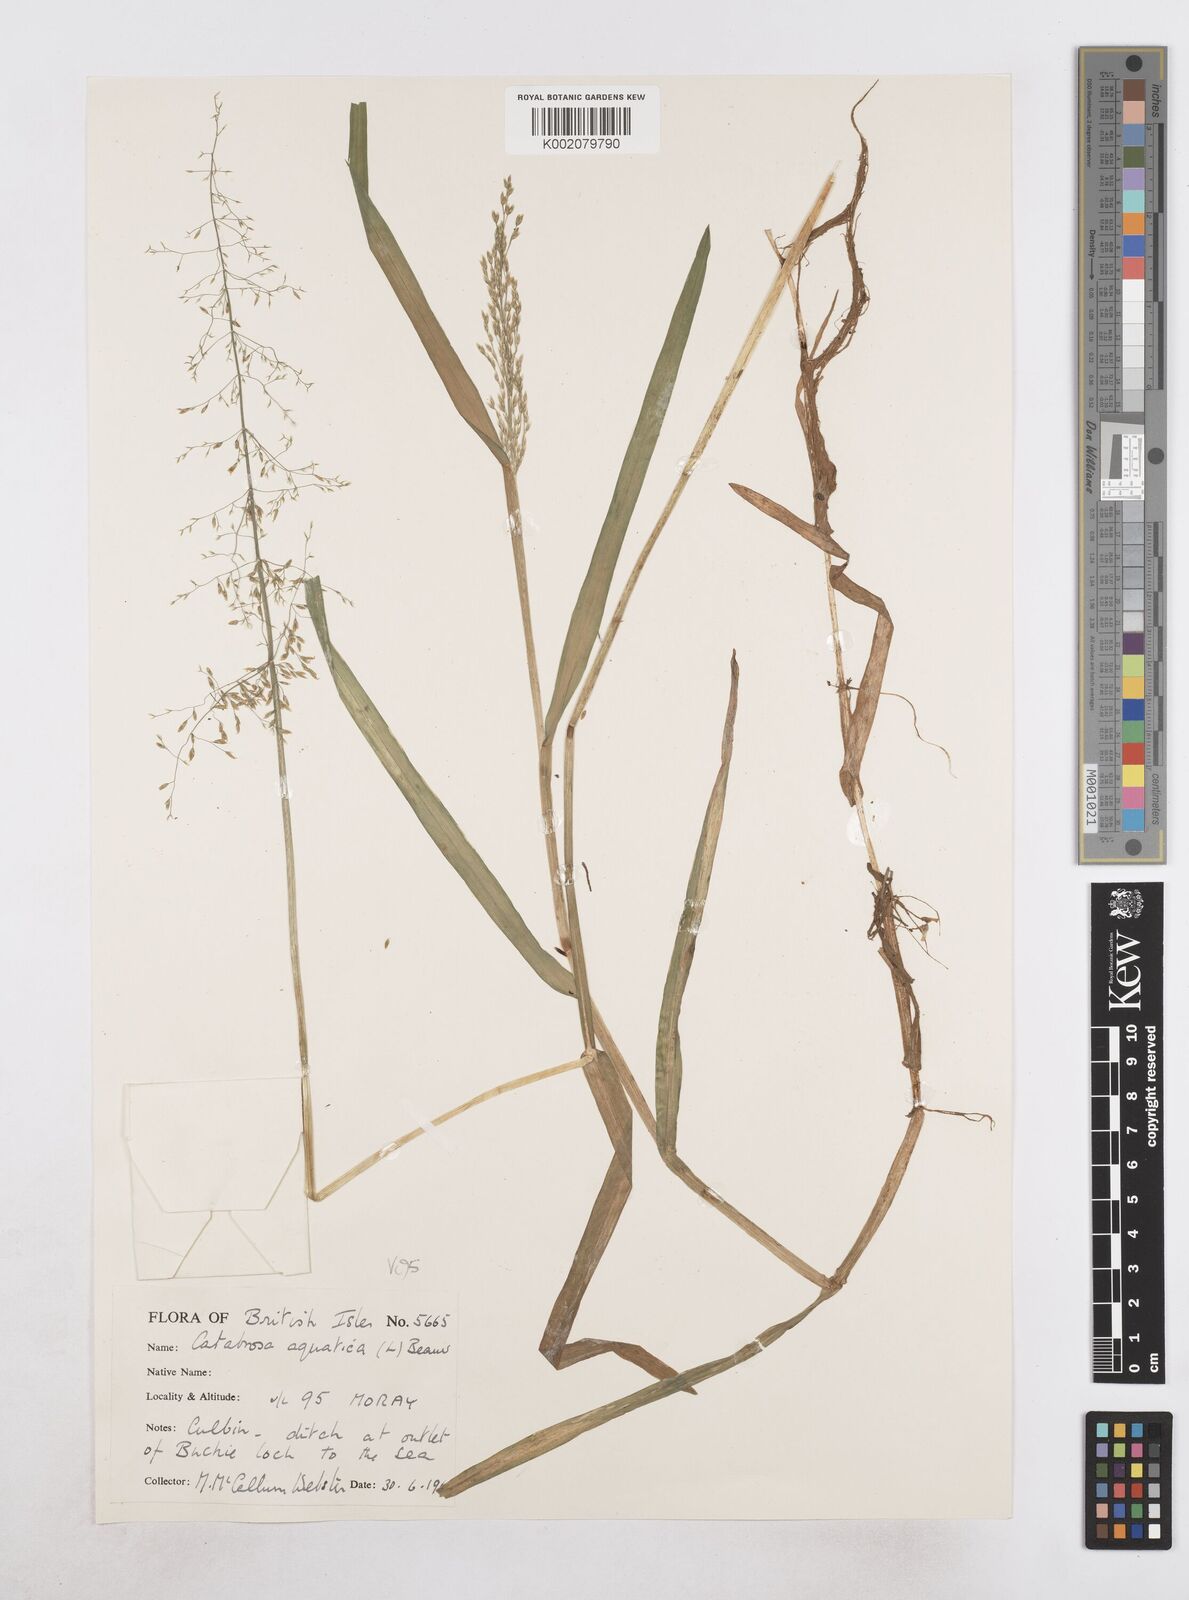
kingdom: Plantae
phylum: Tracheophyta
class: Liliopsida
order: Poales
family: Poaceae
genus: Catabrosa
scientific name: Catabrosa aquatica
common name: Whorl-grass
